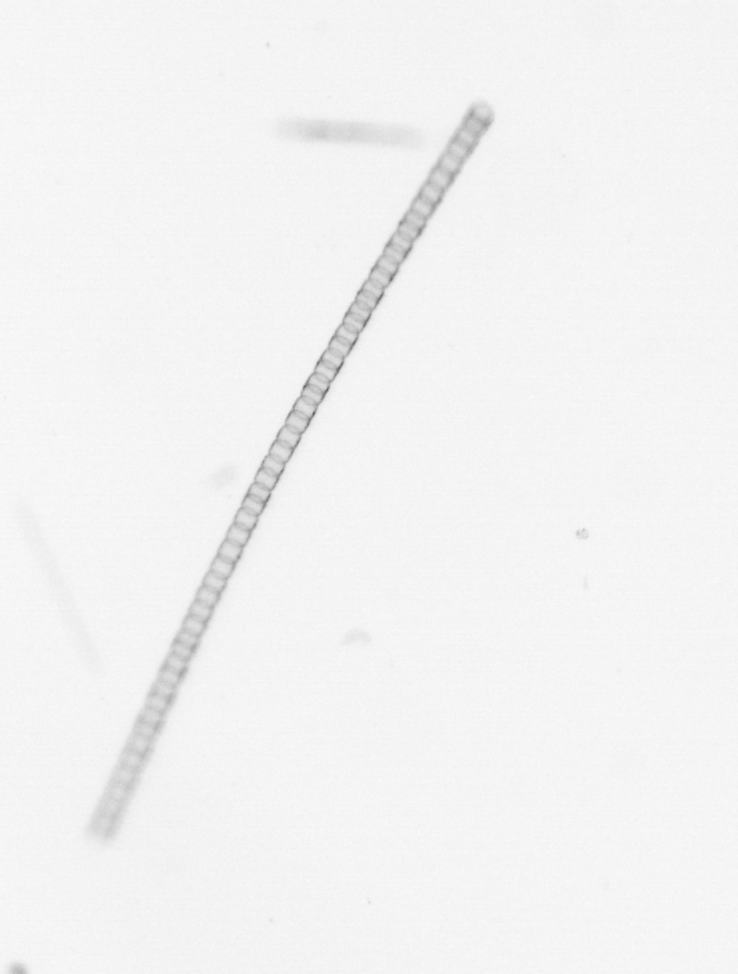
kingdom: Chromista
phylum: Ochrophyta
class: Bacillariophyceae
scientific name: Bacillariophyceae
